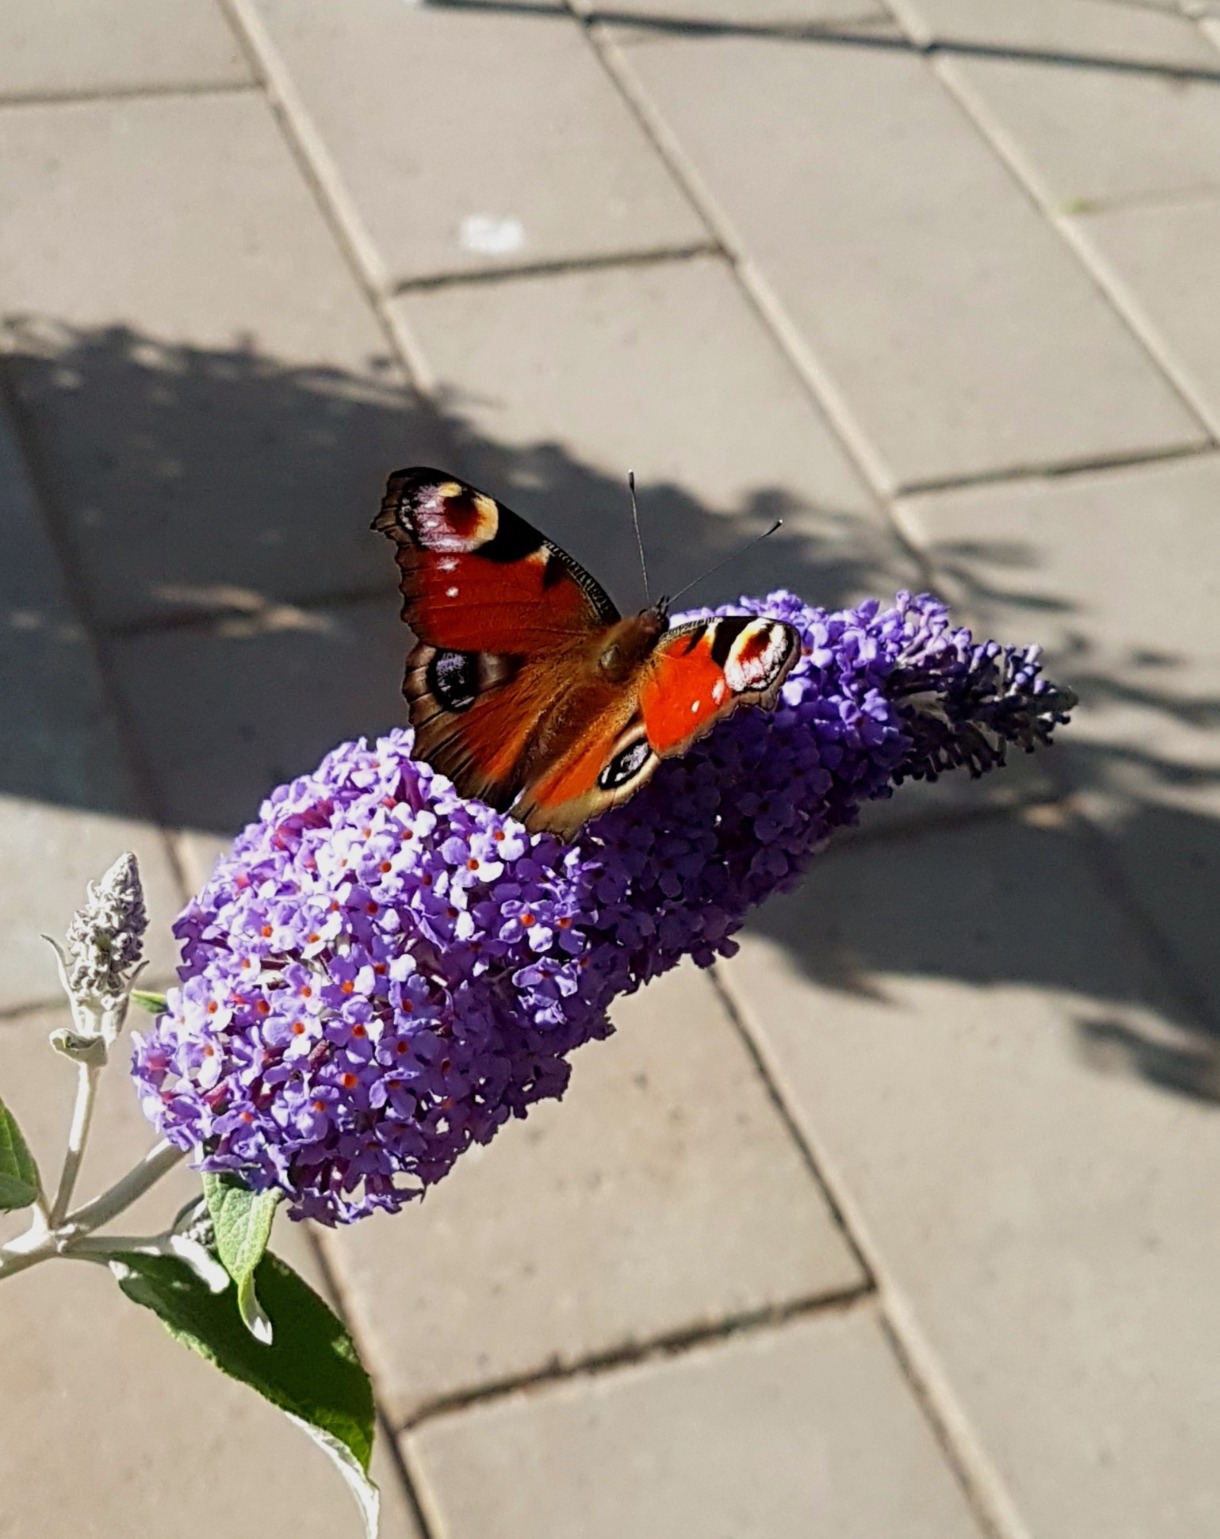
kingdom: Animalia
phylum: Arthropoda
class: Insecta
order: Lepidoptera
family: Nymphalidae
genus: Aglais
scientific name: Aglais io
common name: Dagpåfugleøje
